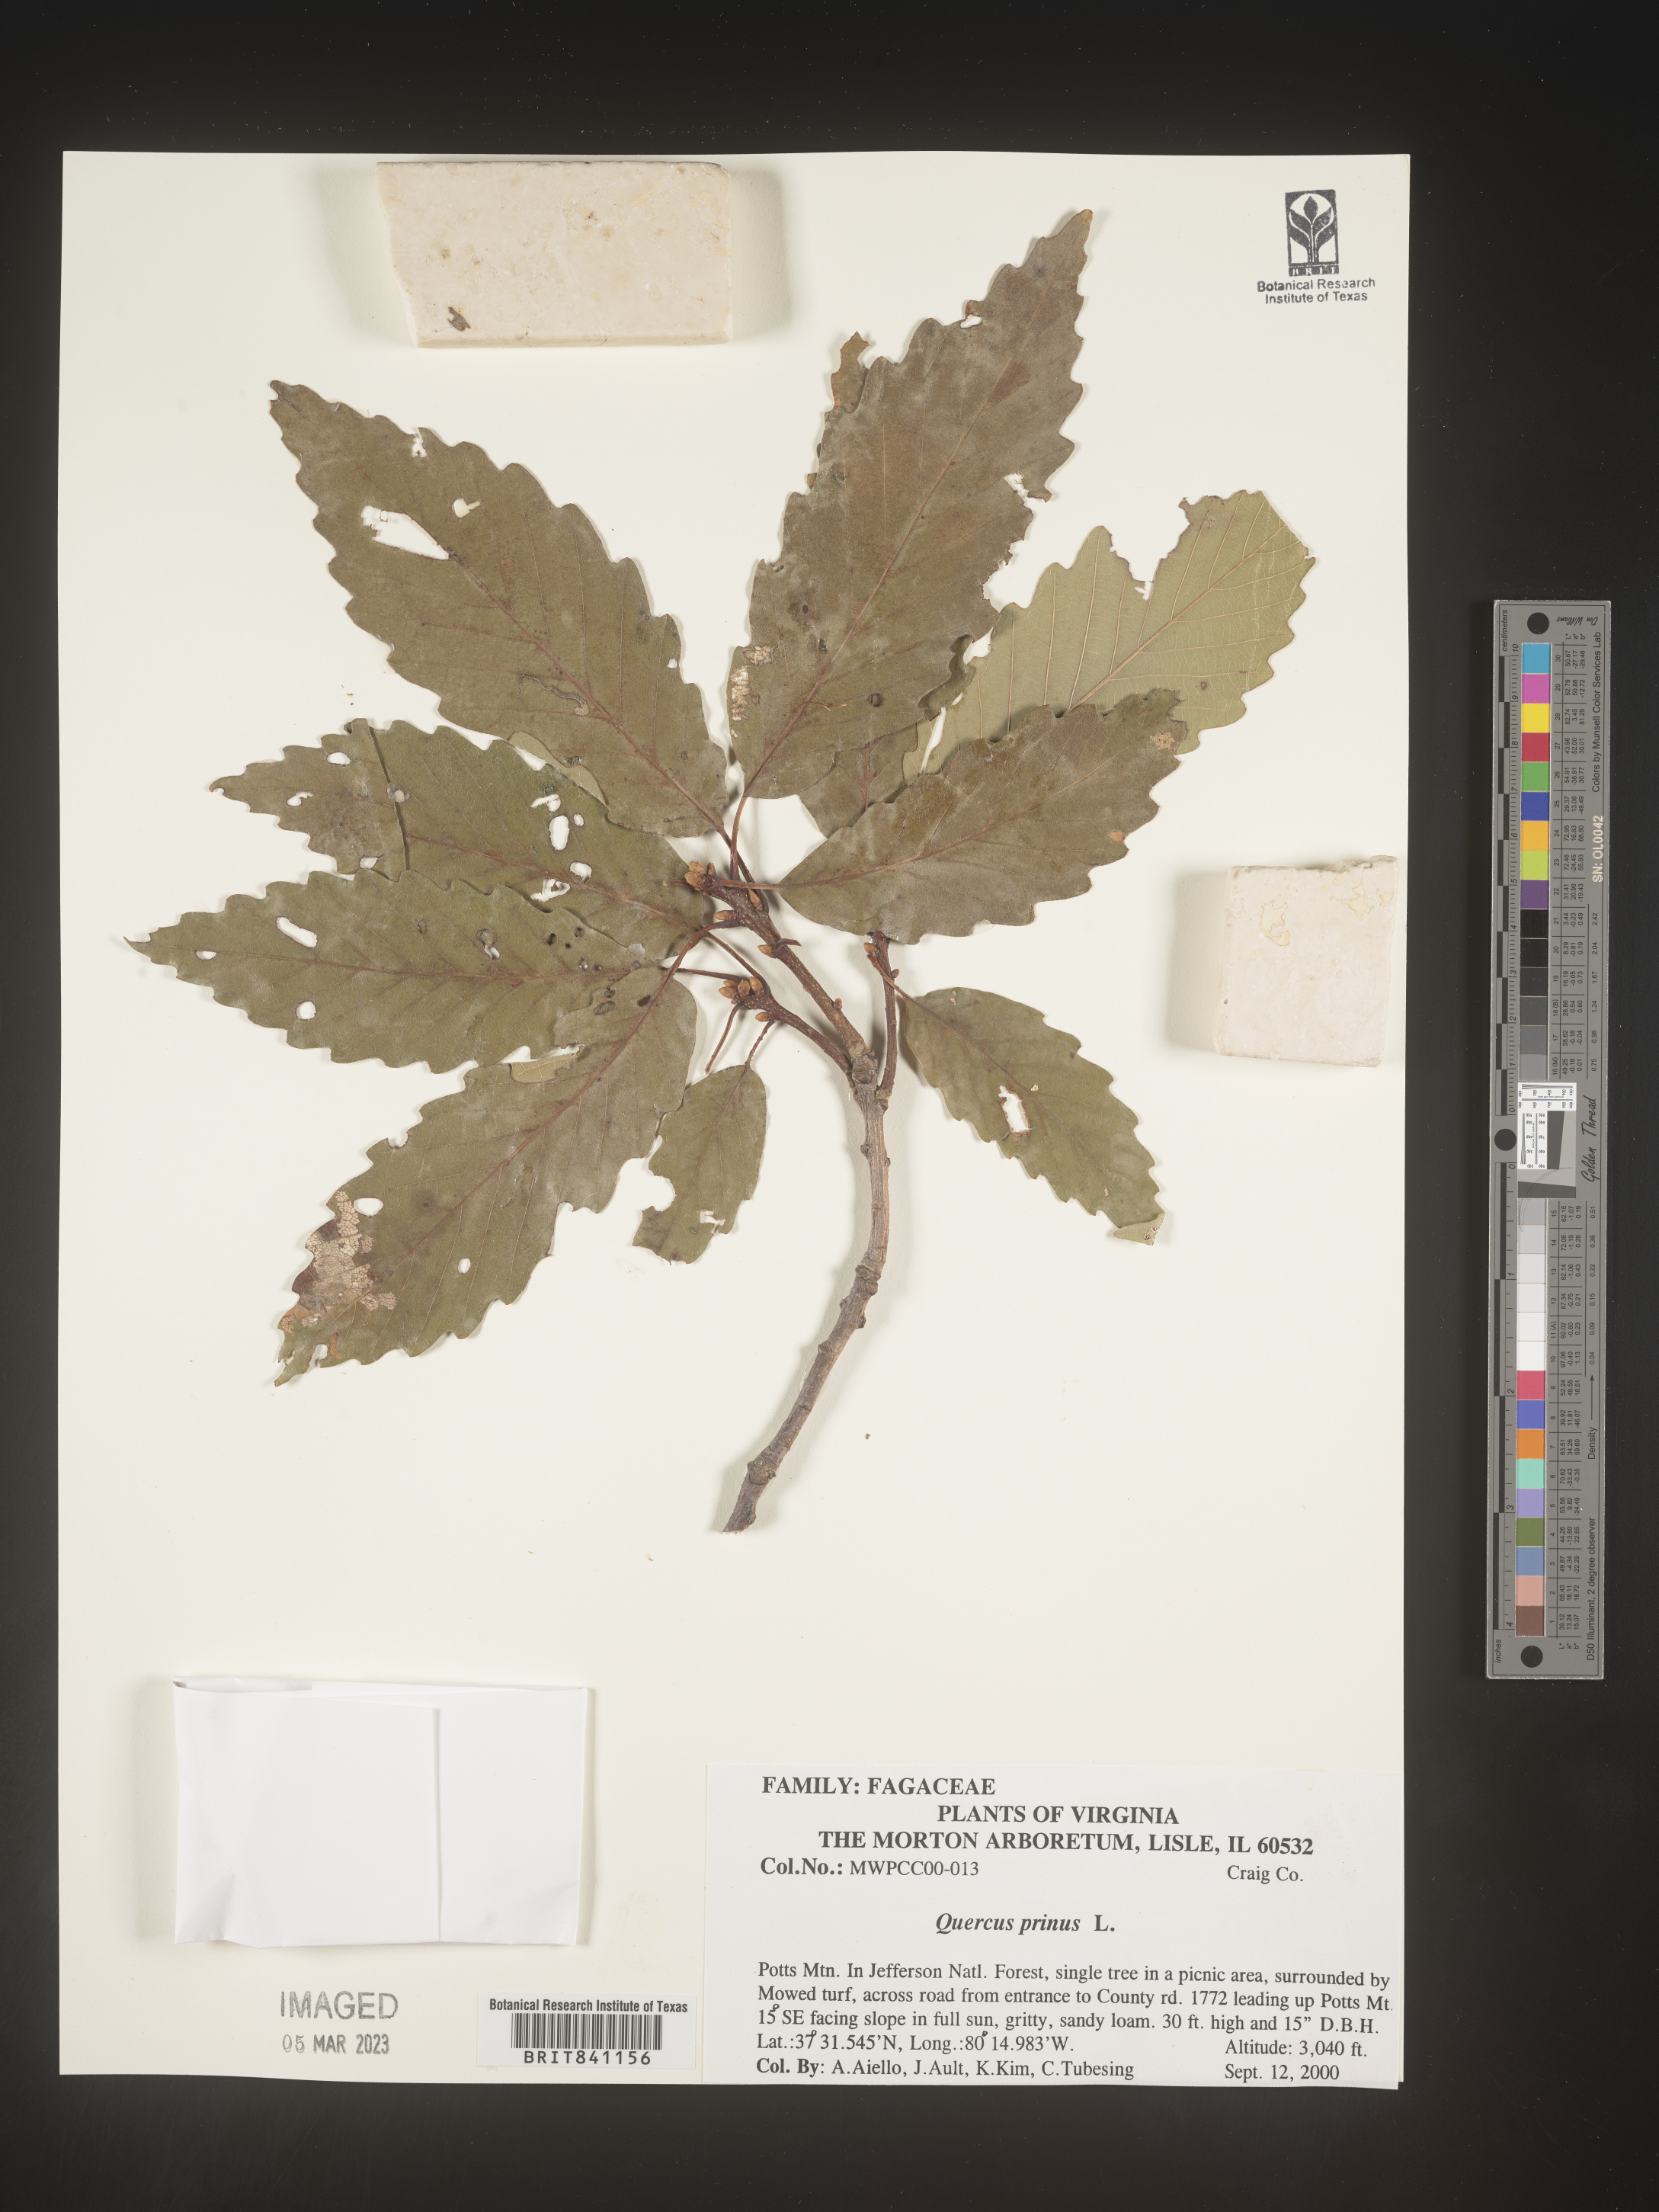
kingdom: Plantae
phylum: Tracheophyta
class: Magnoliopsida
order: Fagales
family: Fagaceae
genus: Quercus
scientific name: Quercus michauxii
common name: Swamp chestnut oak
